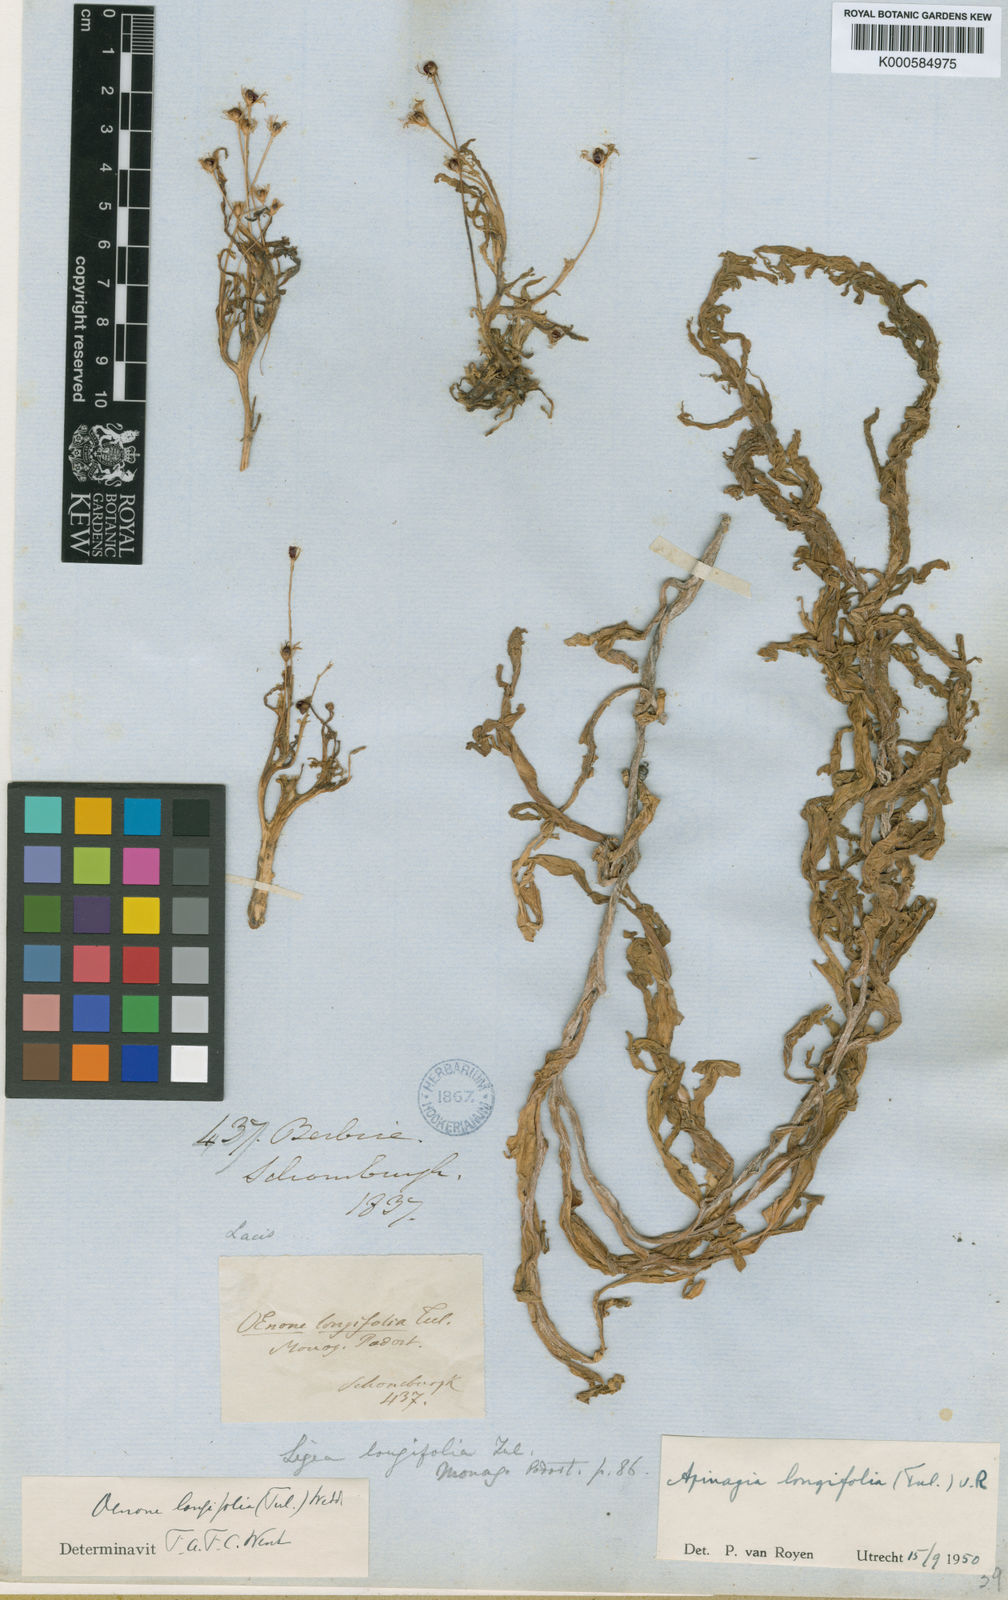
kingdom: Plantae
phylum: Tracheophyta
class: Magnoliopsida
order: Malpighiales
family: Podostemaceae
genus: Apinagia
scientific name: Apinagia longifolia
